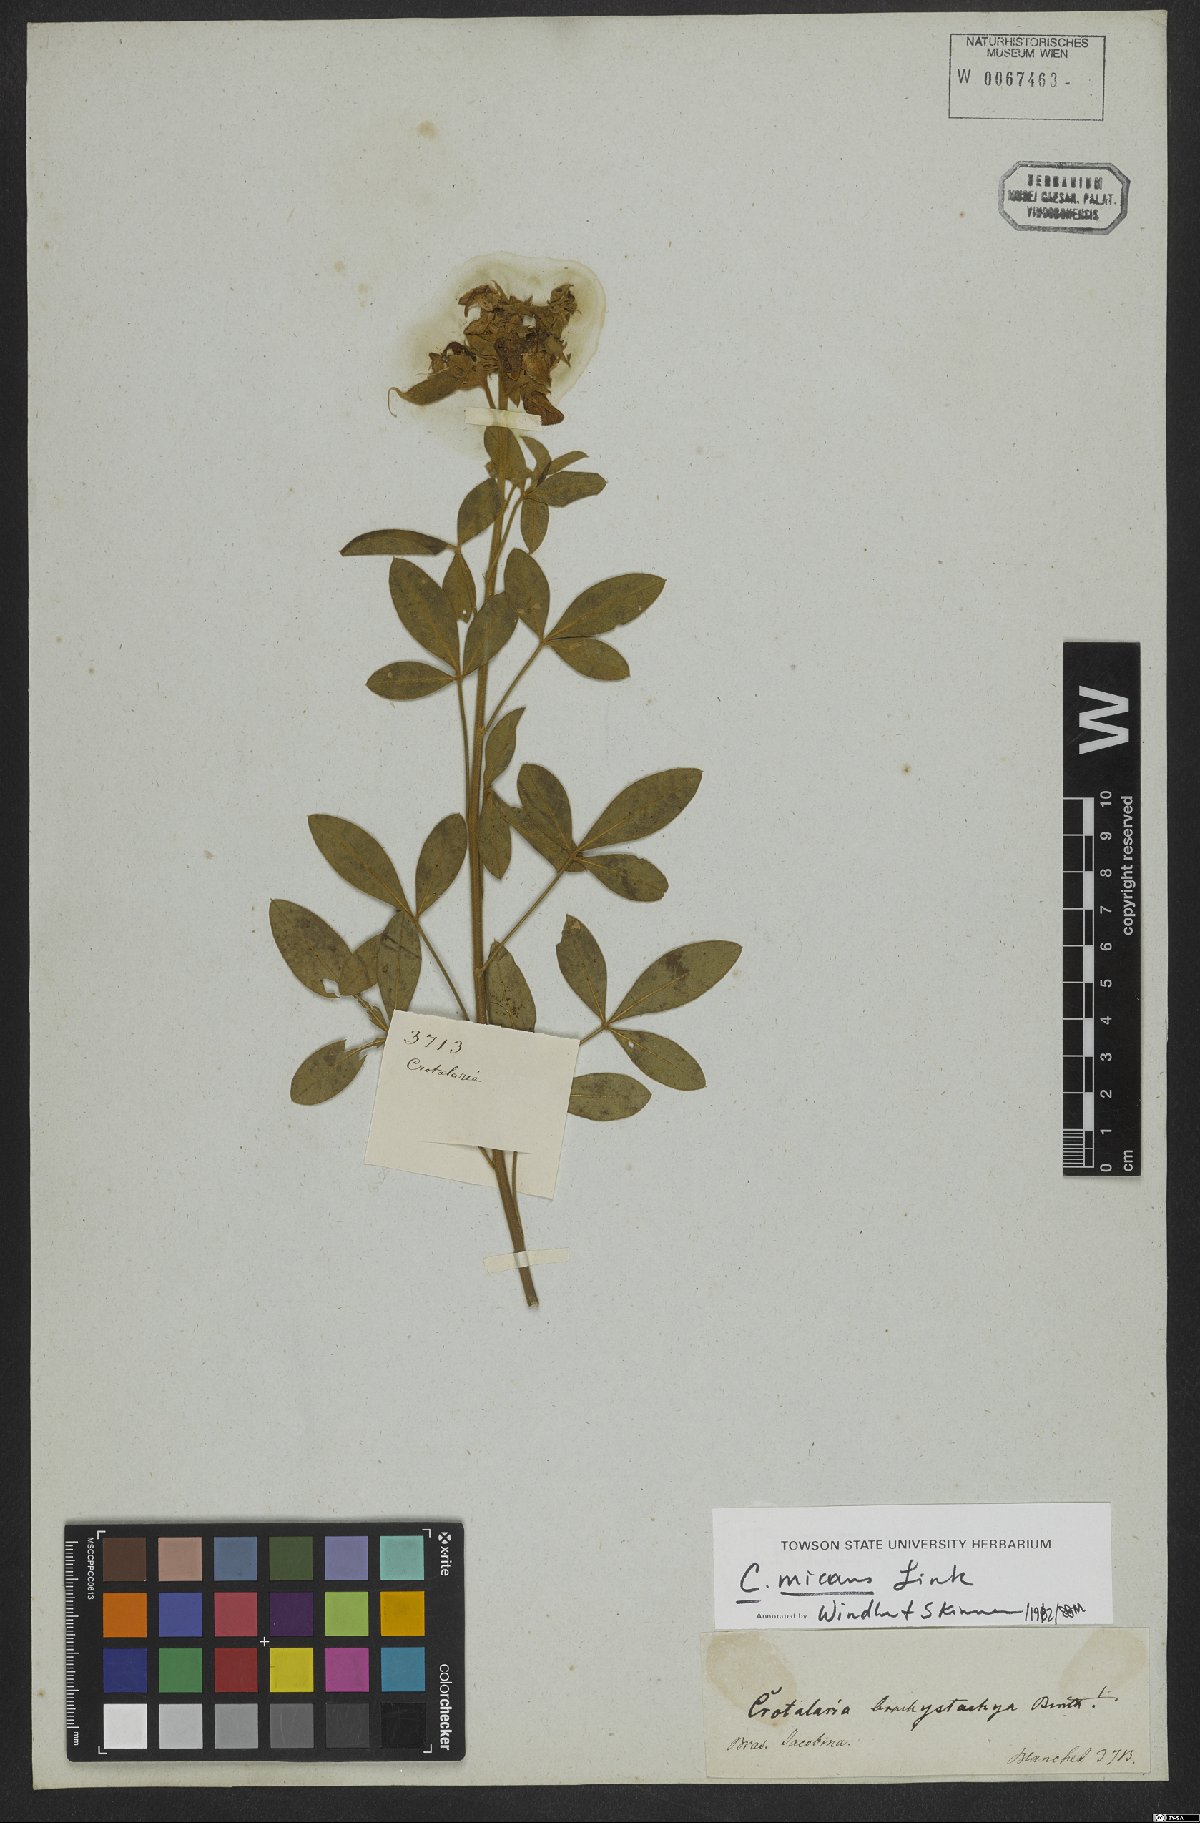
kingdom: Plantae
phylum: Tracheophyta
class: Magnoliopsida
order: Fabales
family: Fabaceae
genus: Crotalaria
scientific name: Crotalaria micans
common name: Caracas rattlebox
